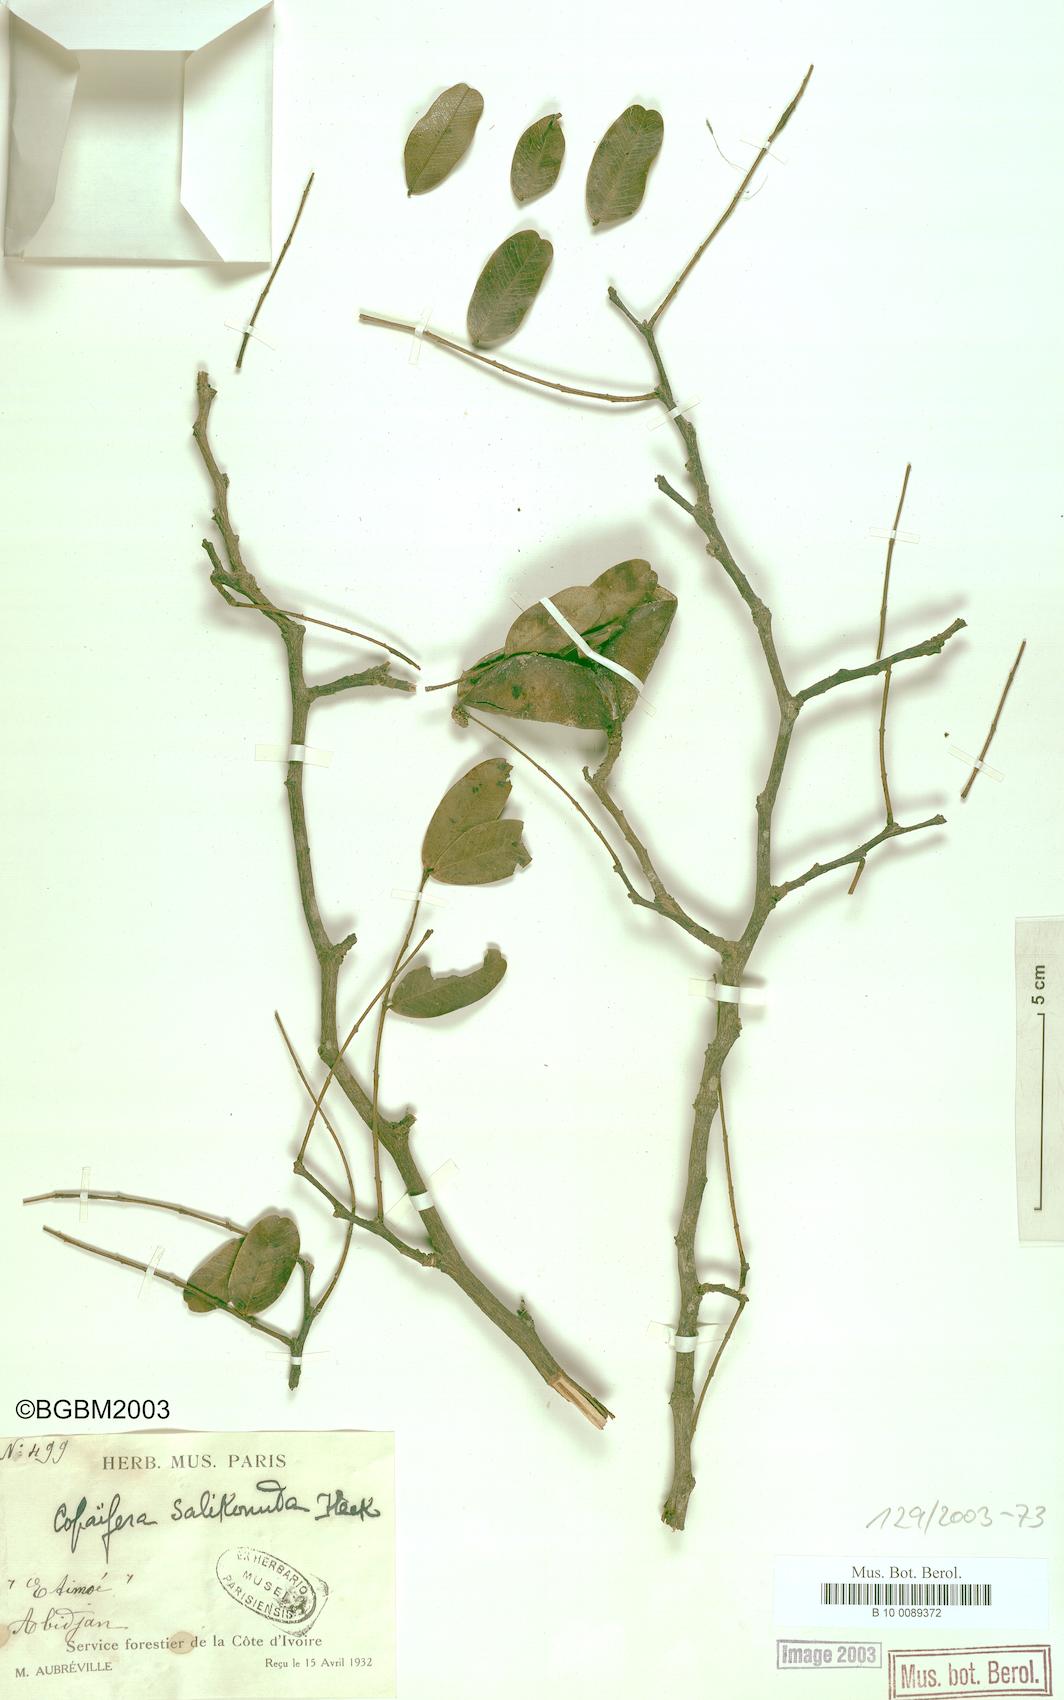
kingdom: Plantae
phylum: Tracheophyta
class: Magnoliopsida
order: Fabales
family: Fabaceae
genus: Copaifera
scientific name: Copaifera salikounda
